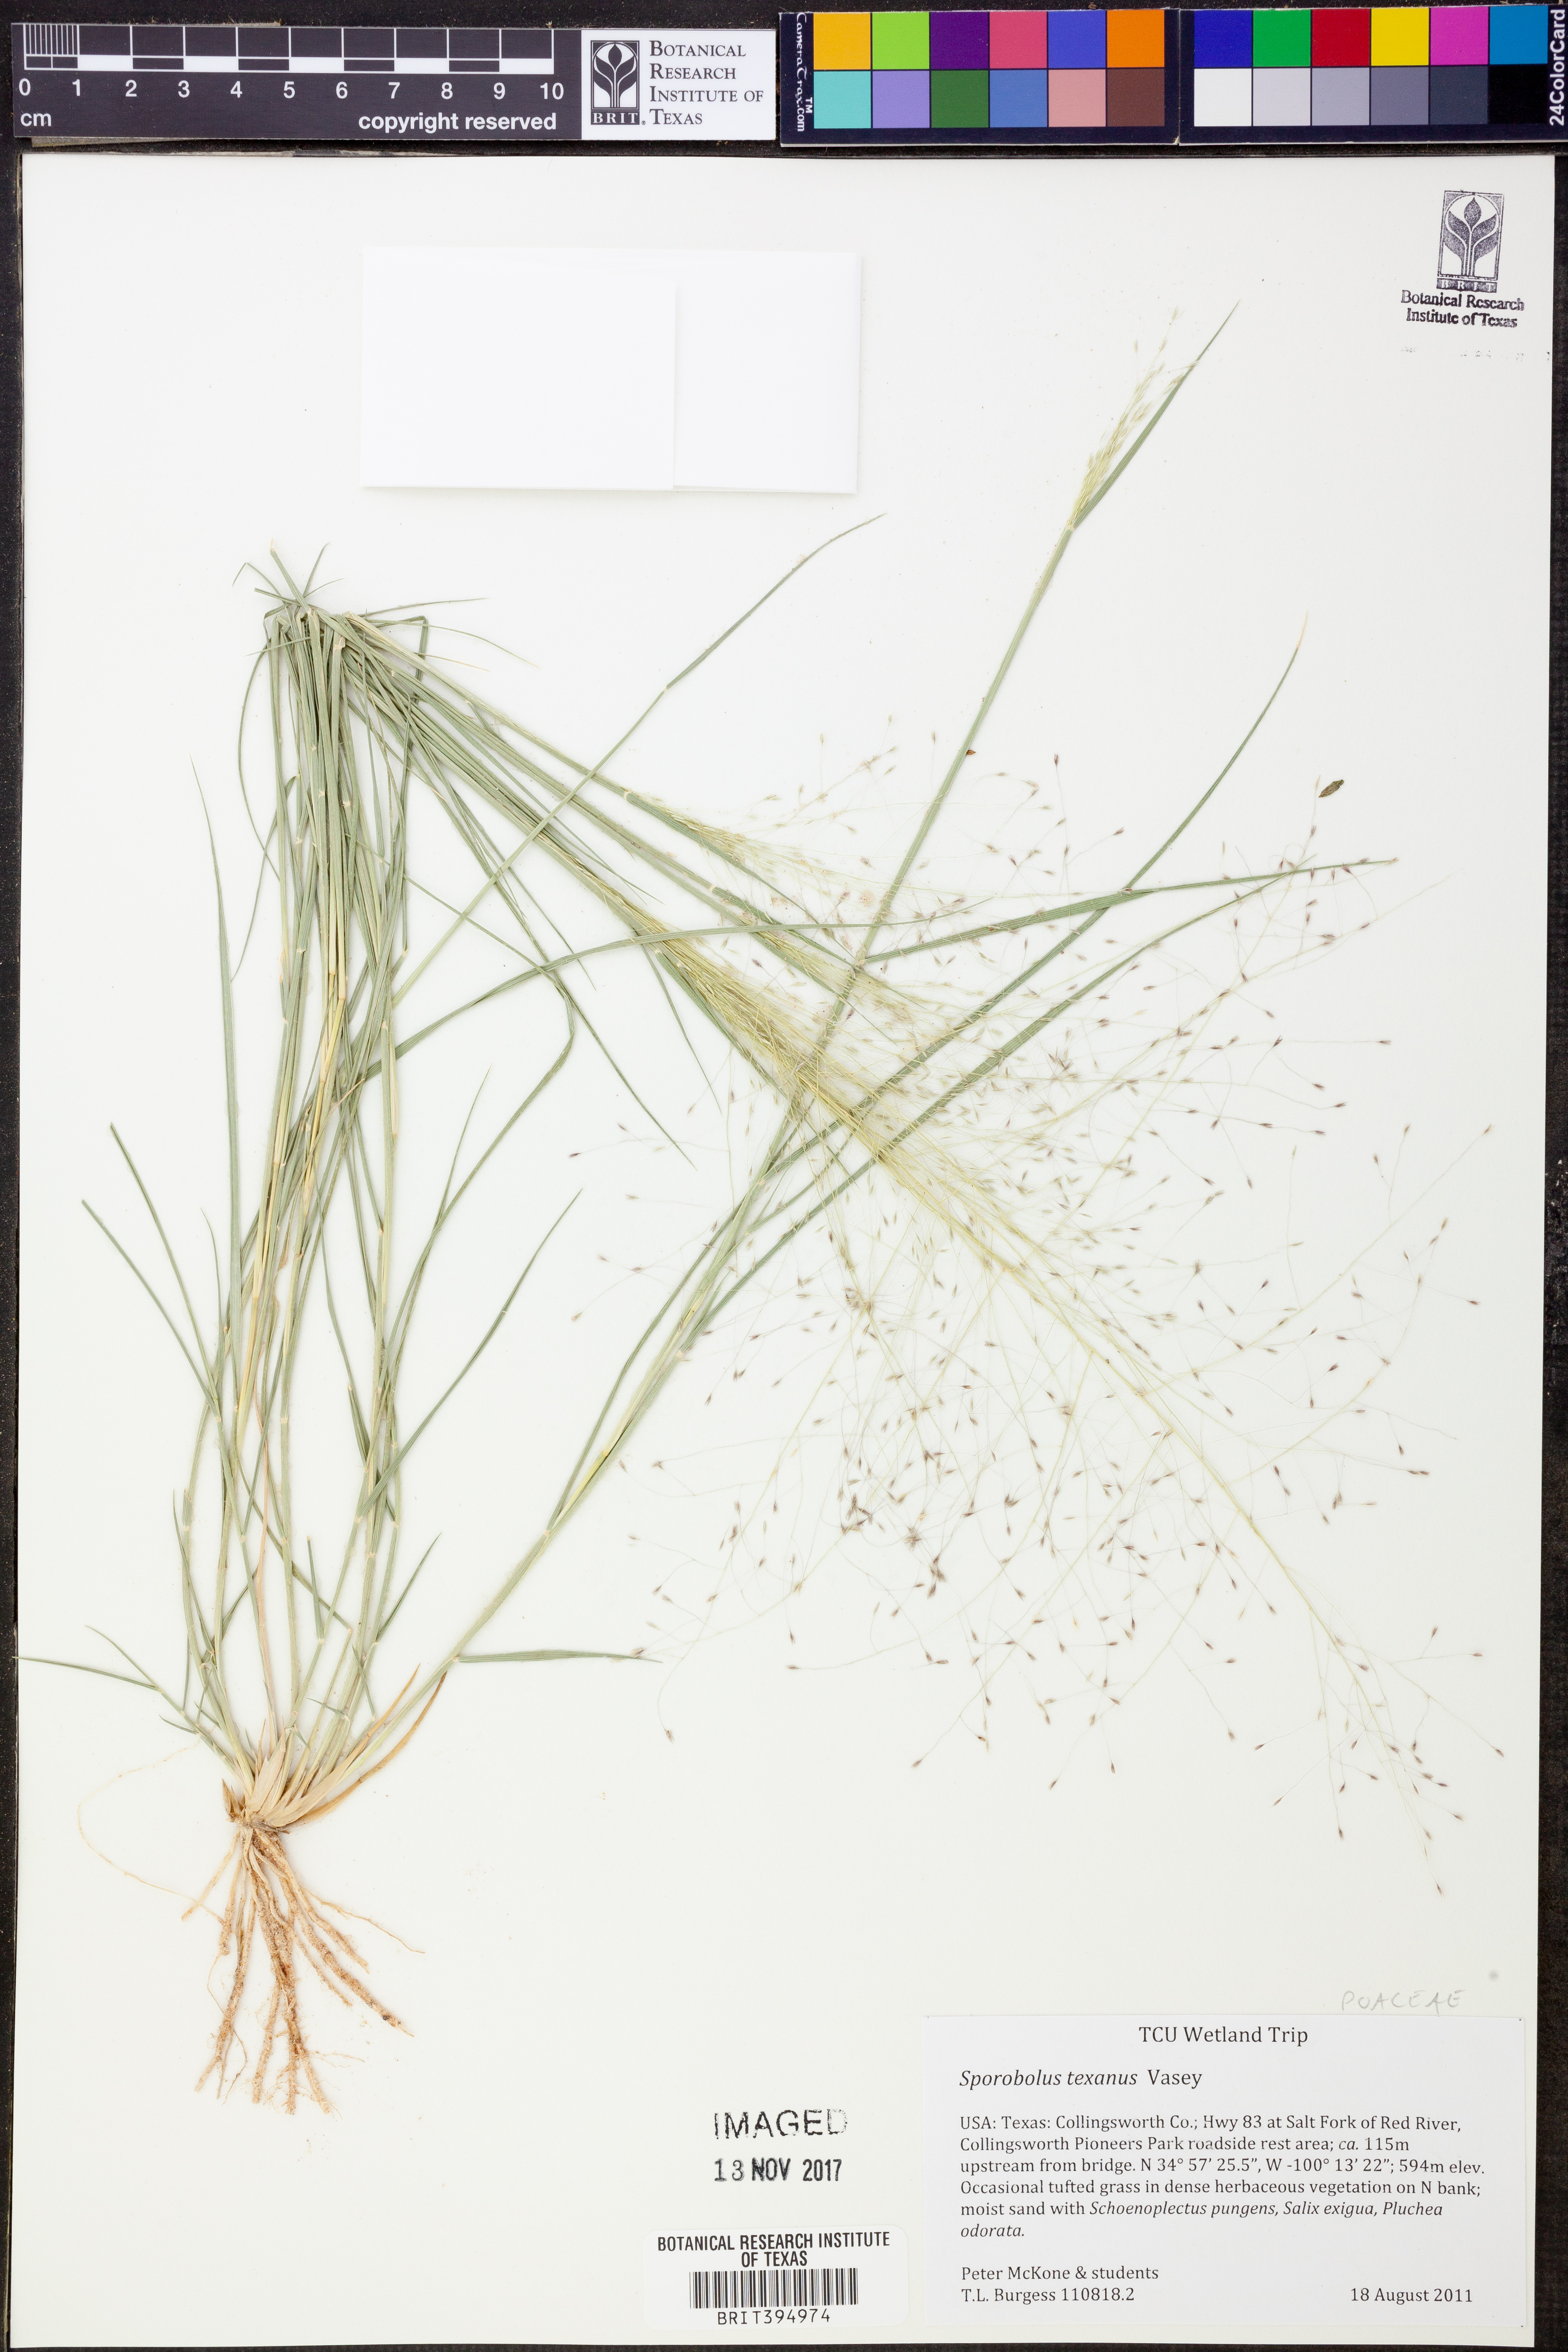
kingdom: Plantae
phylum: Tracheophyta
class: Liliopsida
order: Poales
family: Poaceae
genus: Sporobolus
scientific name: Sporobolus texanus
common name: Texas dropseed
